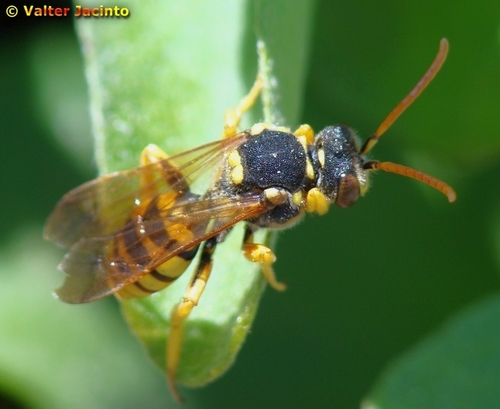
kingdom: Animalia
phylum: Arthropoda
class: Insecta
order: Hymenoptera
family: Apidae
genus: Nomada
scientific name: Nomada lathburiana
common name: Lathbury's nomad bee
